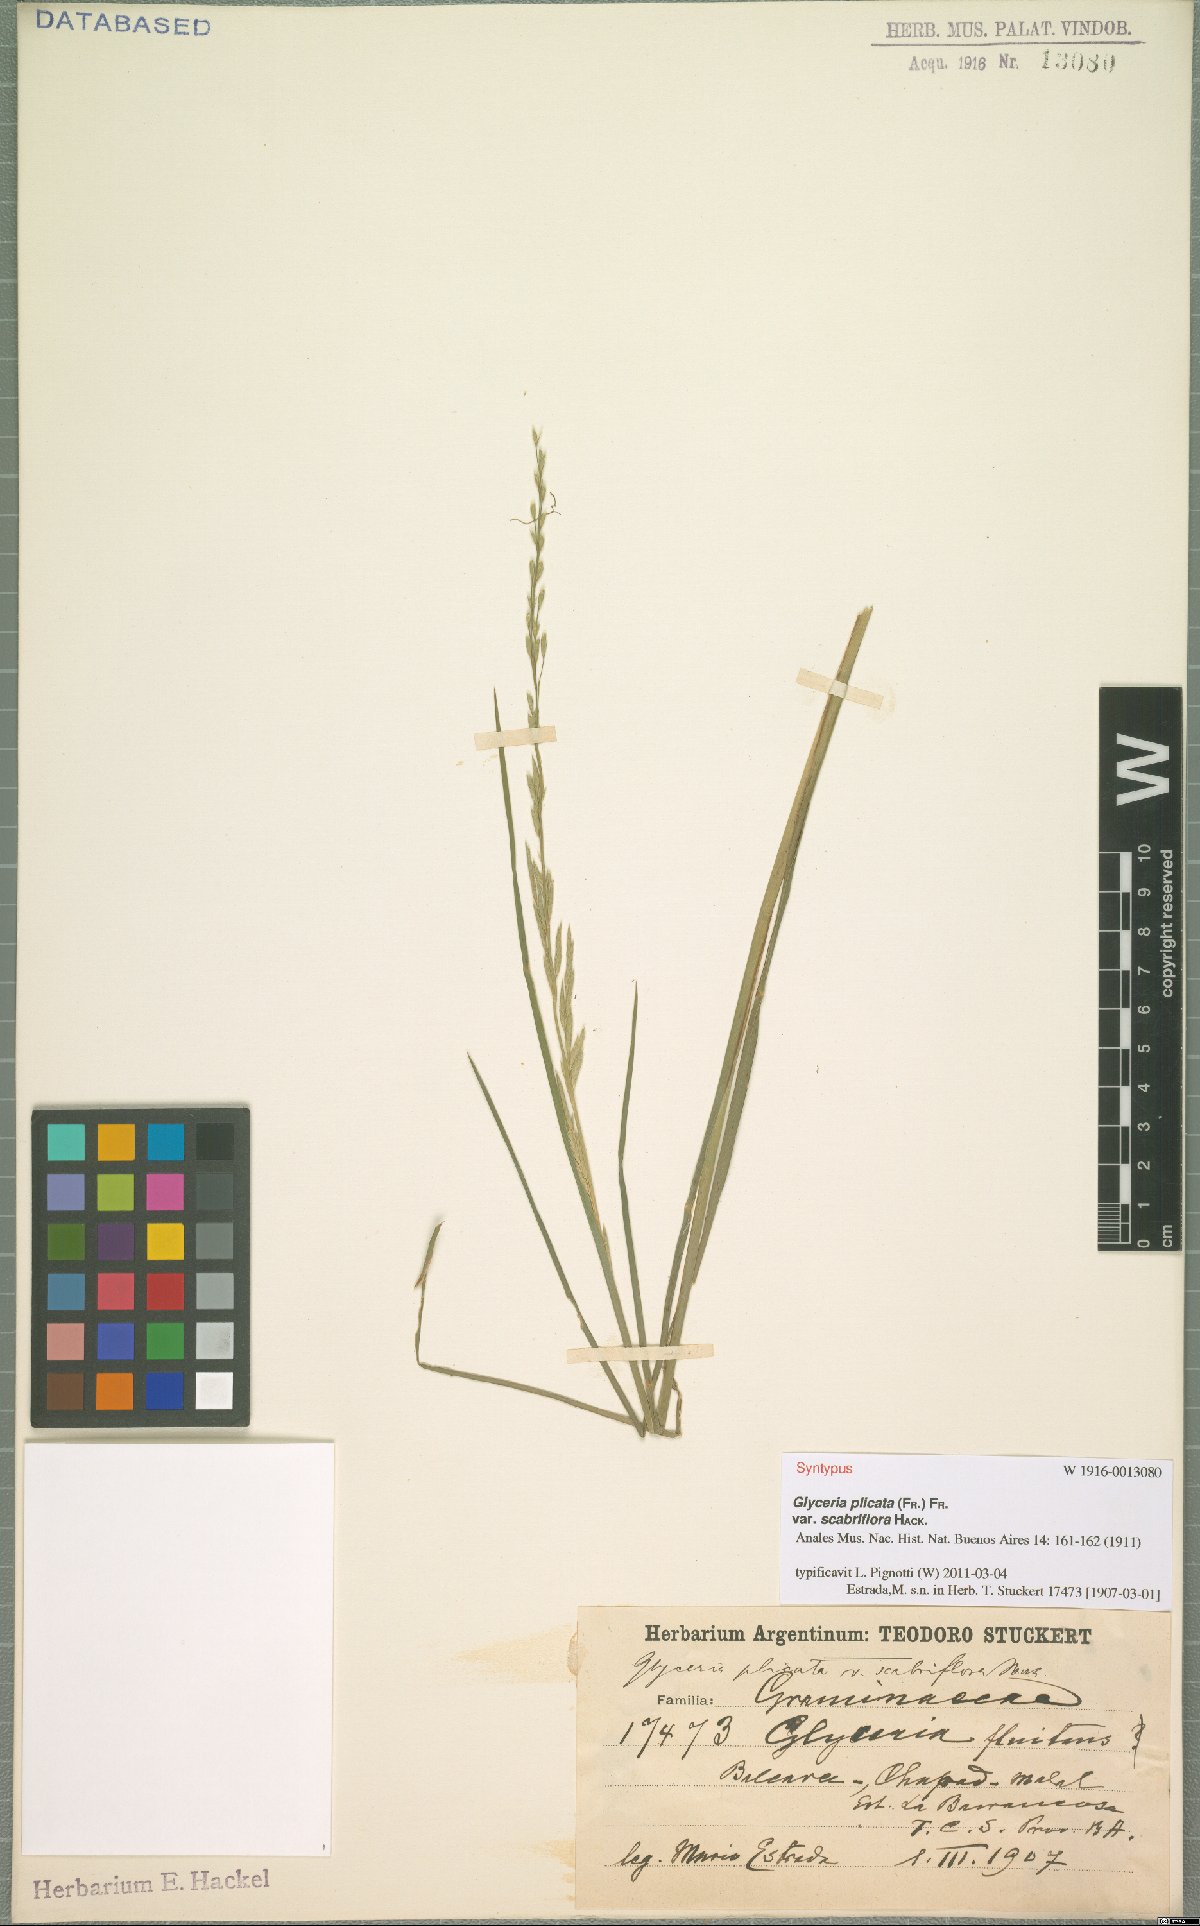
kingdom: Plantae
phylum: Tracheophyta
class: Liliopsida
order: Poales
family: Poaceae
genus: Glyceria
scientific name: Glyceria notata
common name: Plicate sweet-grass
